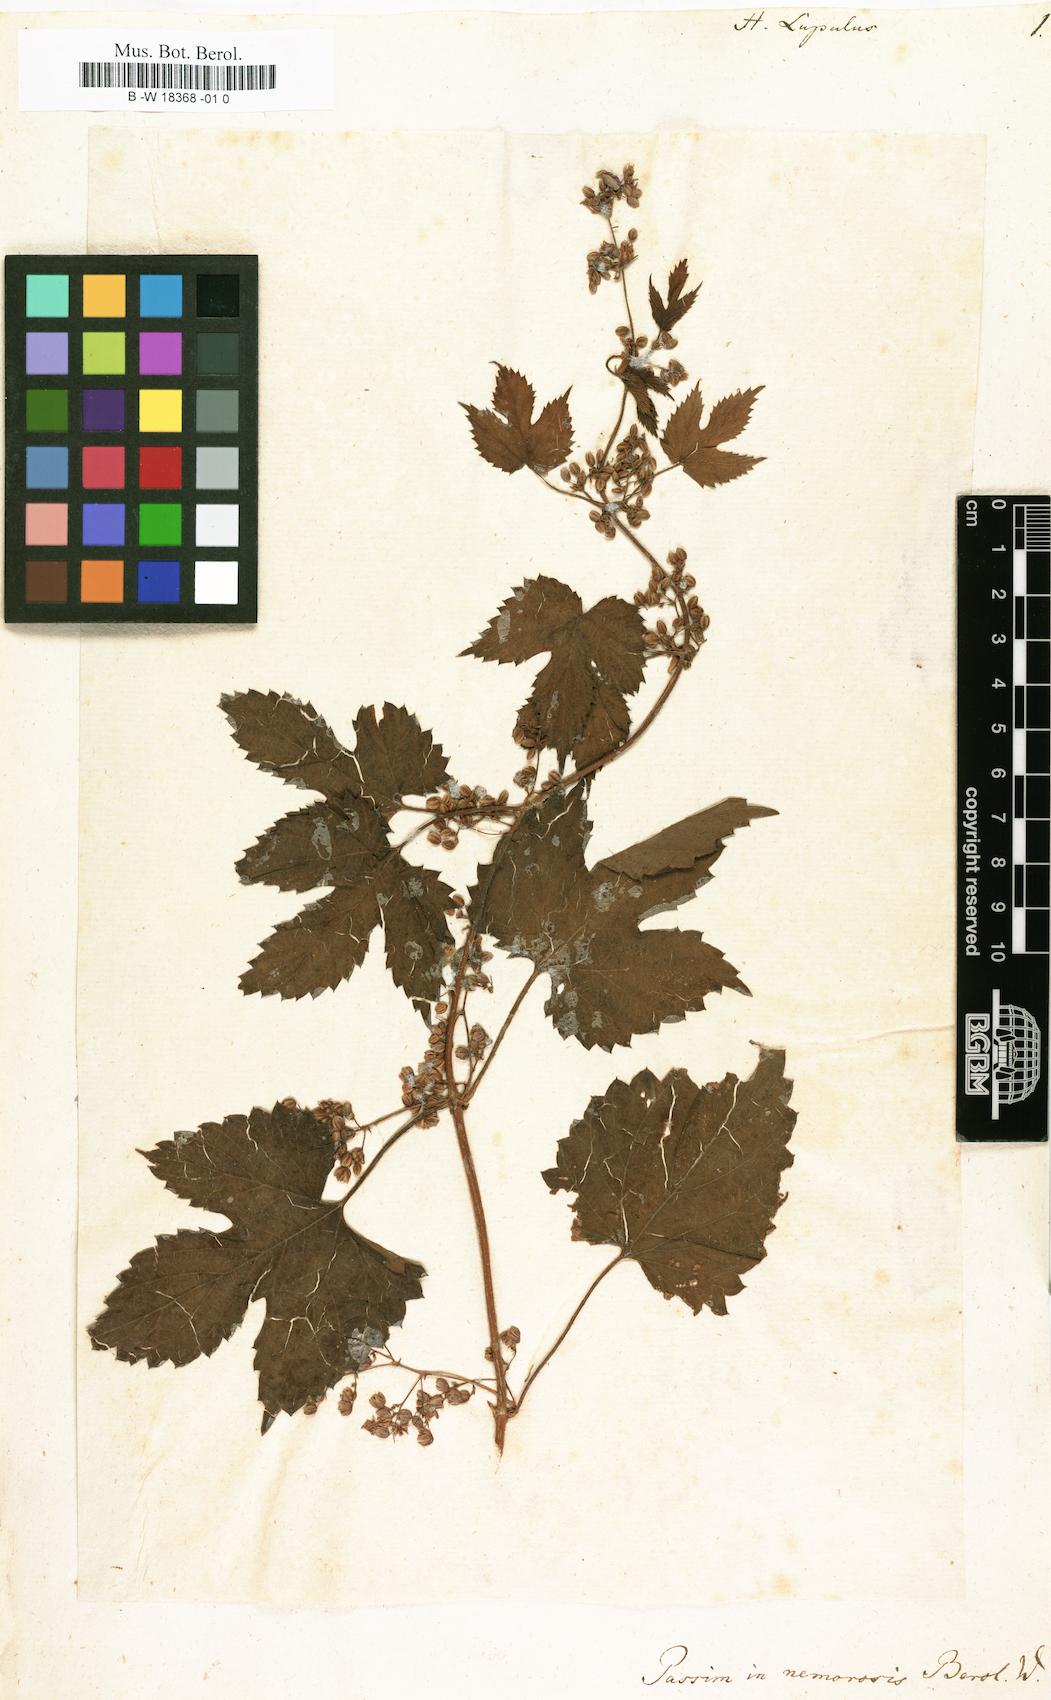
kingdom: Plantae
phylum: Tracheophyta
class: Magnoliopsida
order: Rosales
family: Cannabaceae
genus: Humulus
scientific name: Humulus lupulus
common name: Hop
